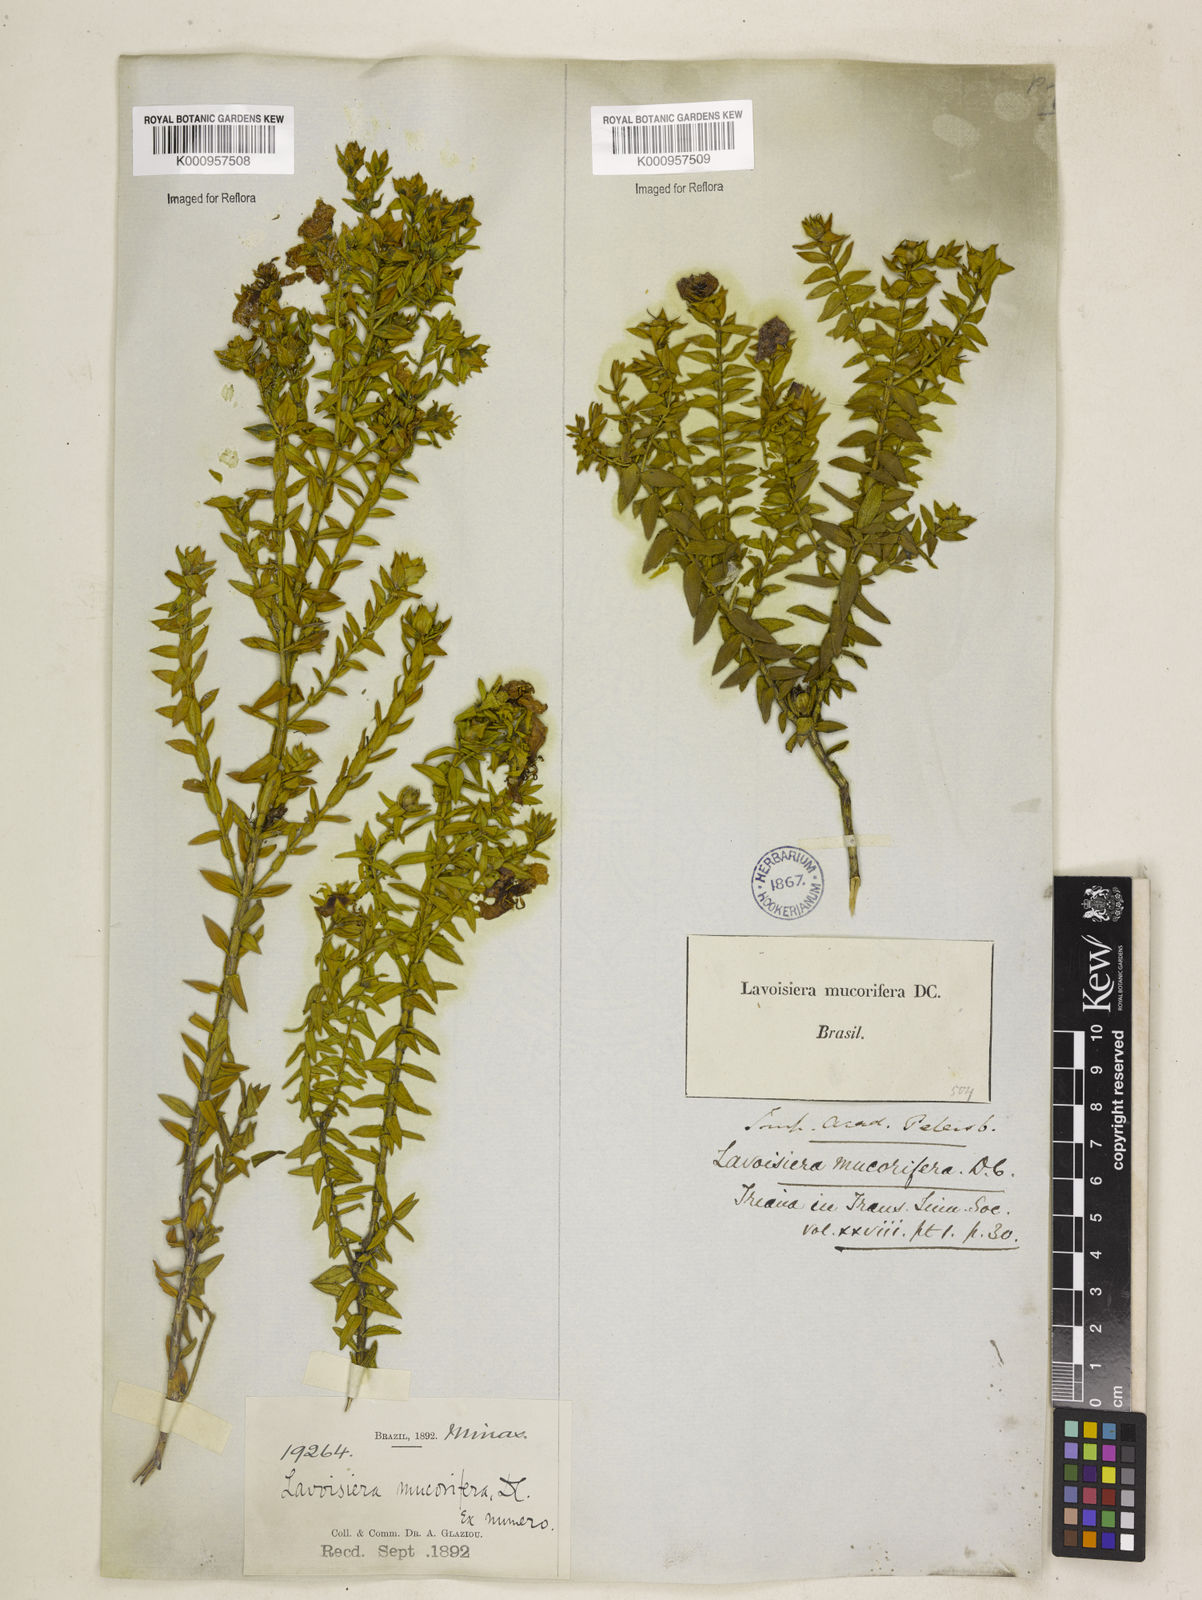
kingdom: Plantae
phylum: Tracheophyta
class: Magnoliopsida
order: Myrtales
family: Melastomataceae
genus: Microlicia
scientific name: Microlicia mucorifera
